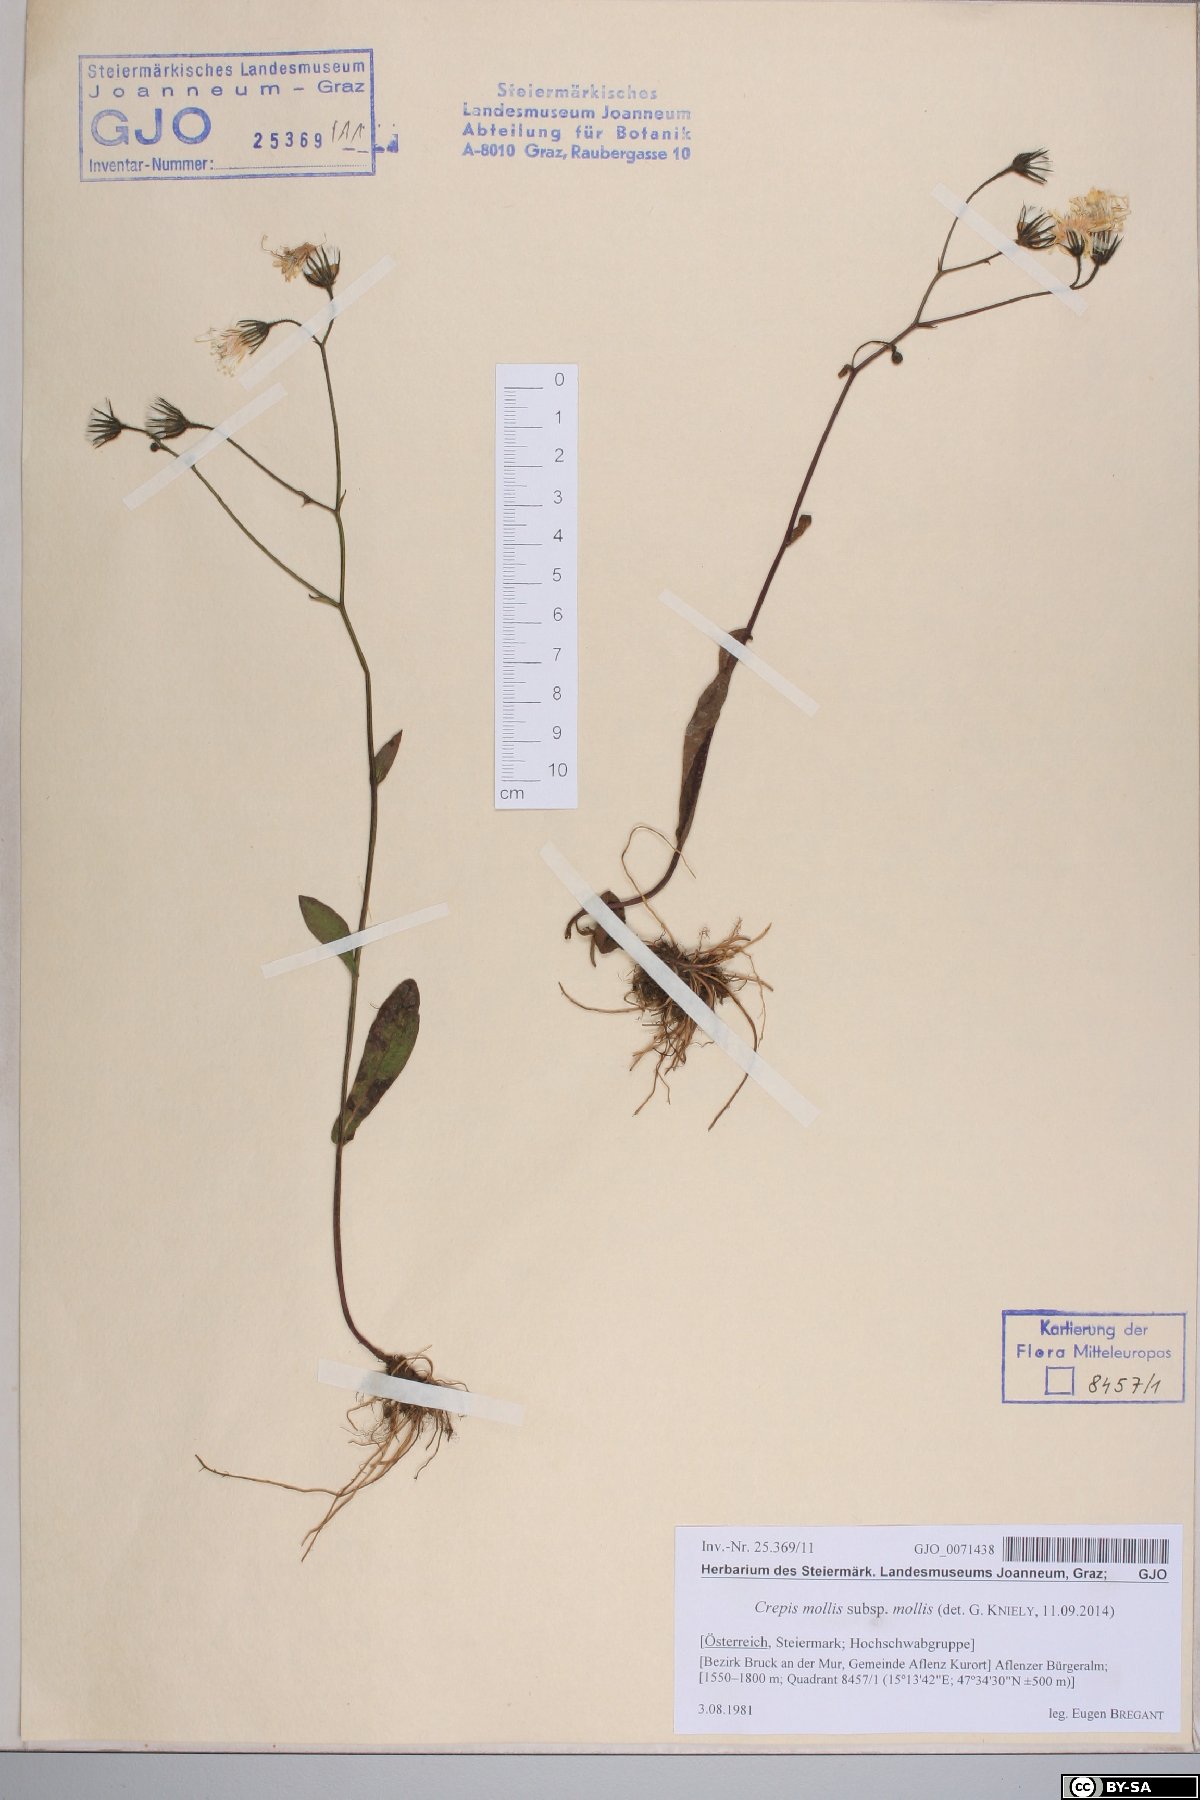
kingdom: Plantae
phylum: Tracheophyta
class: Magnoliopsida
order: Asterales
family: Asteraceae
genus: Crepis
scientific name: Crepis mollis
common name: Northern hawk's-beard
